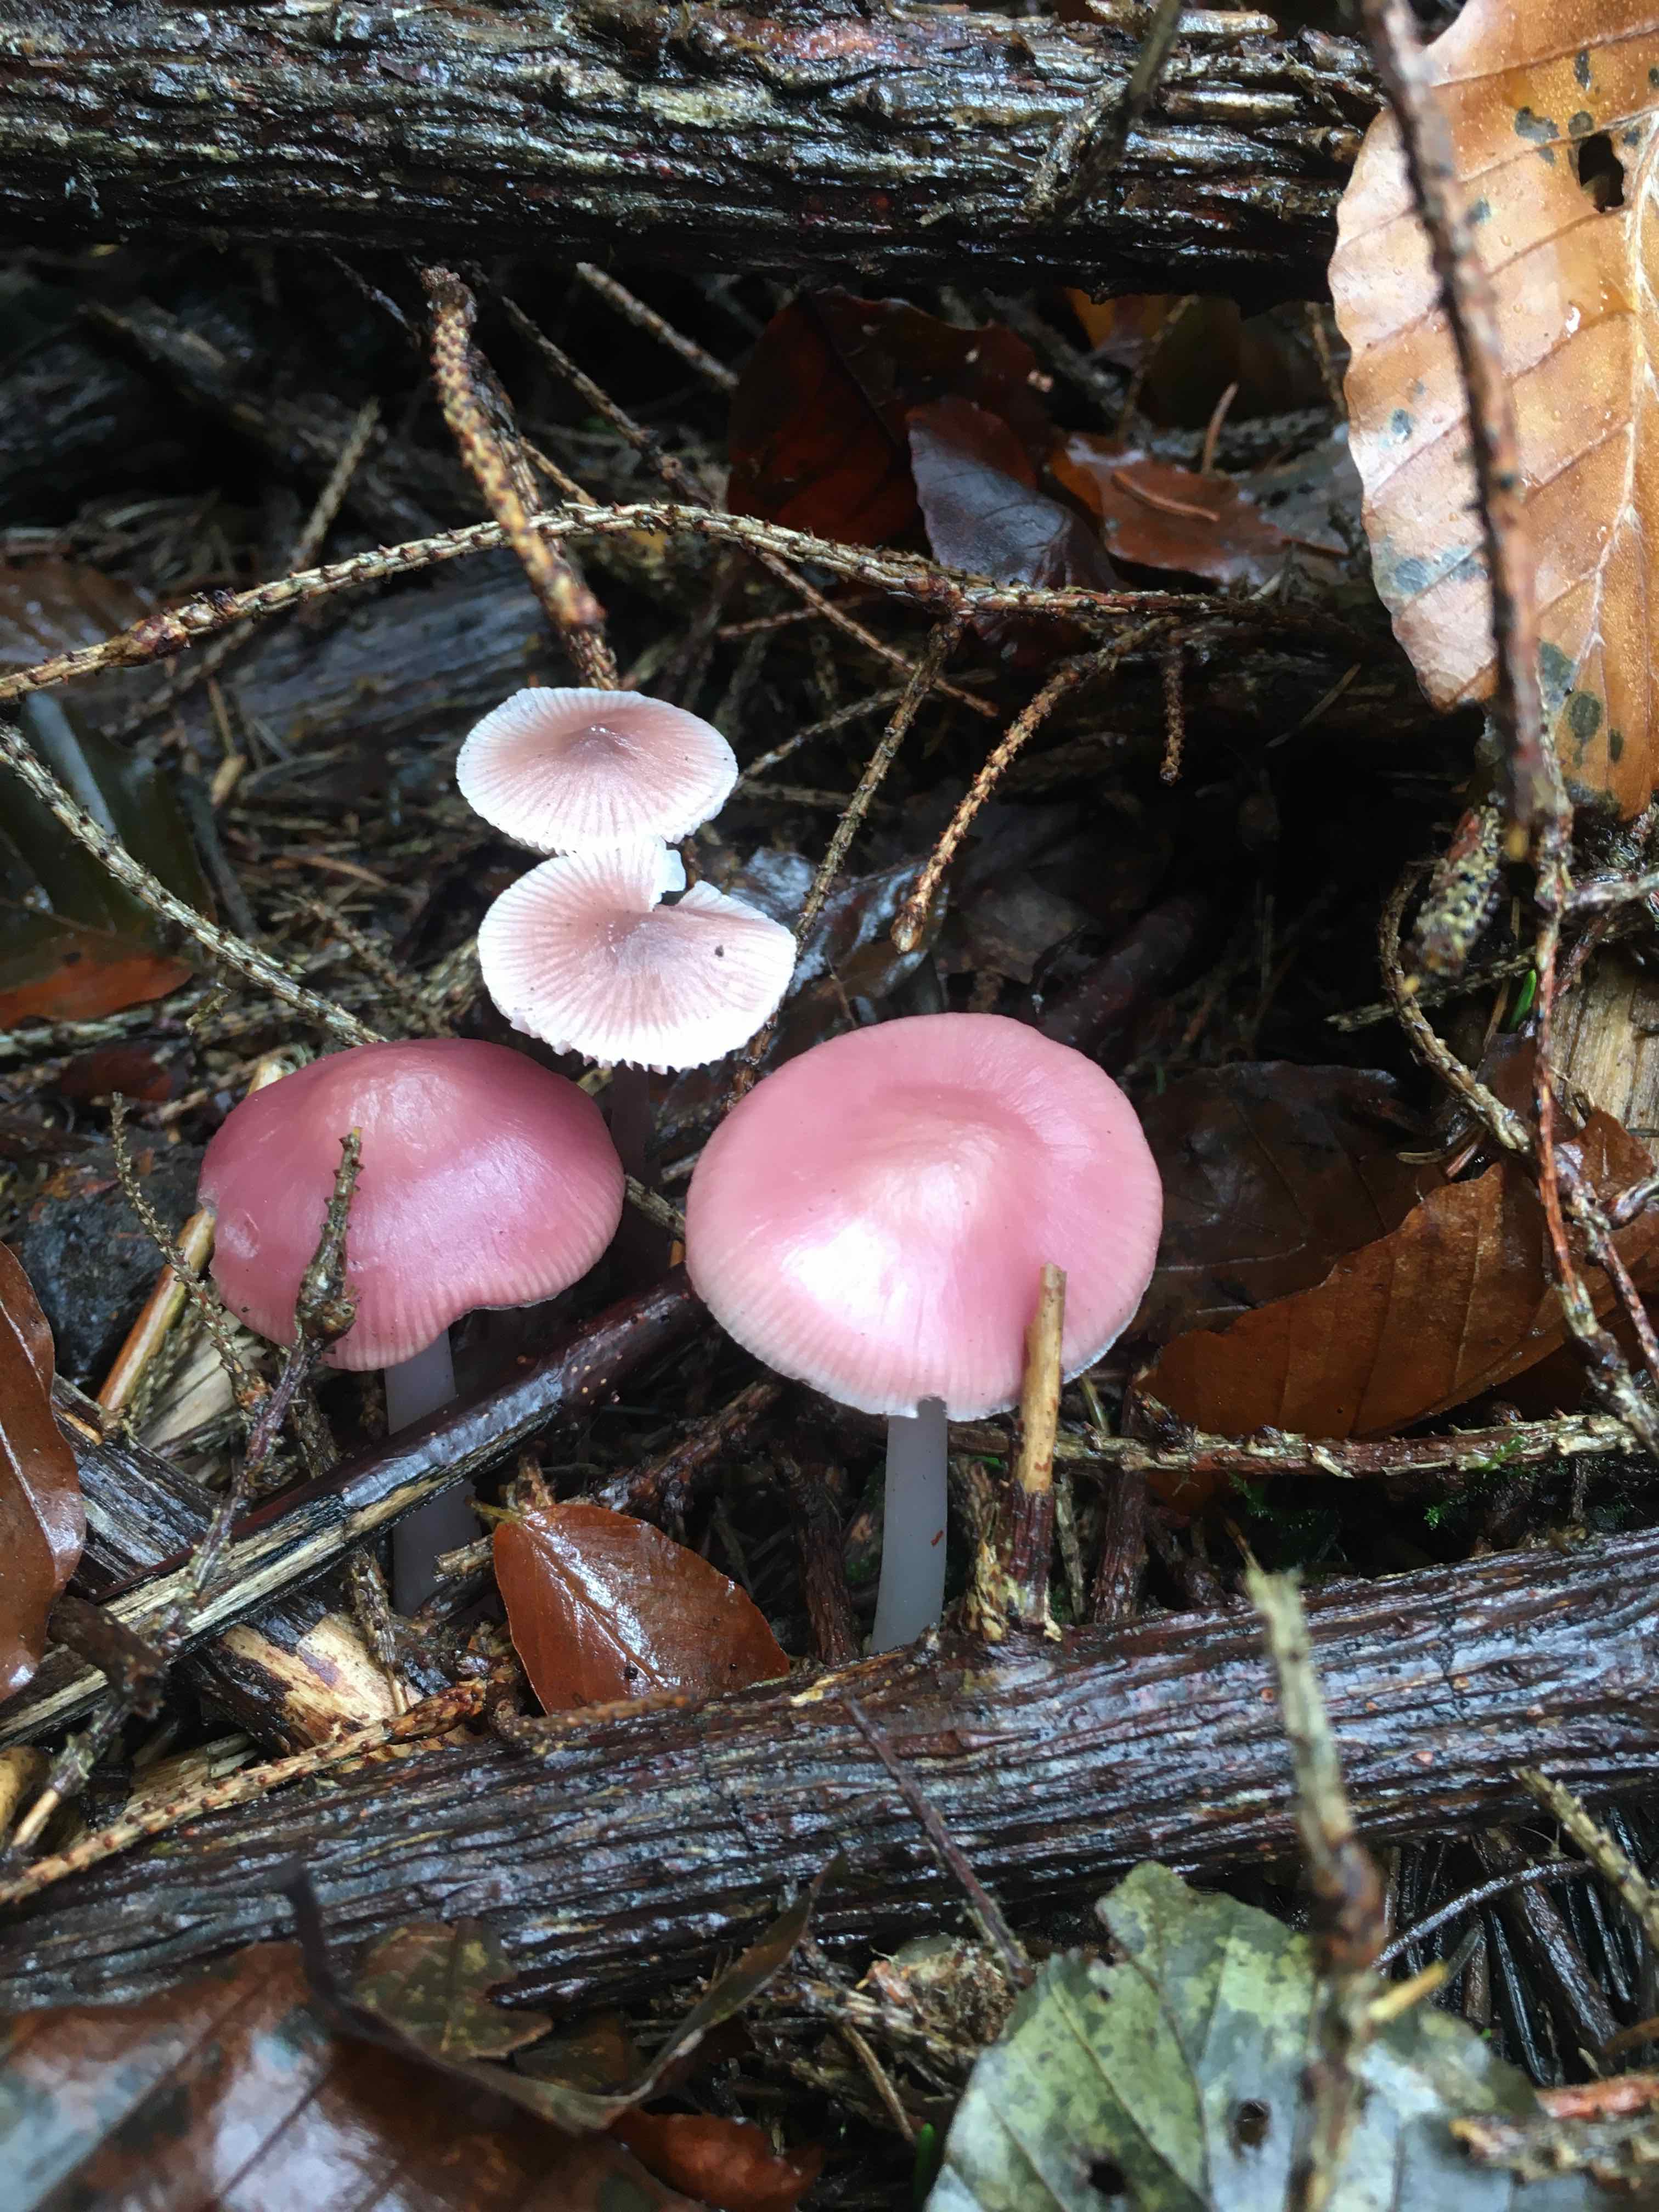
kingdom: Fungi
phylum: Basidiomycota
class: Agaricomycetes
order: Agaricales
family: Mycenaceae
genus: Mycena
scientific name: Mycena rosea
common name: rosa huesvamp
